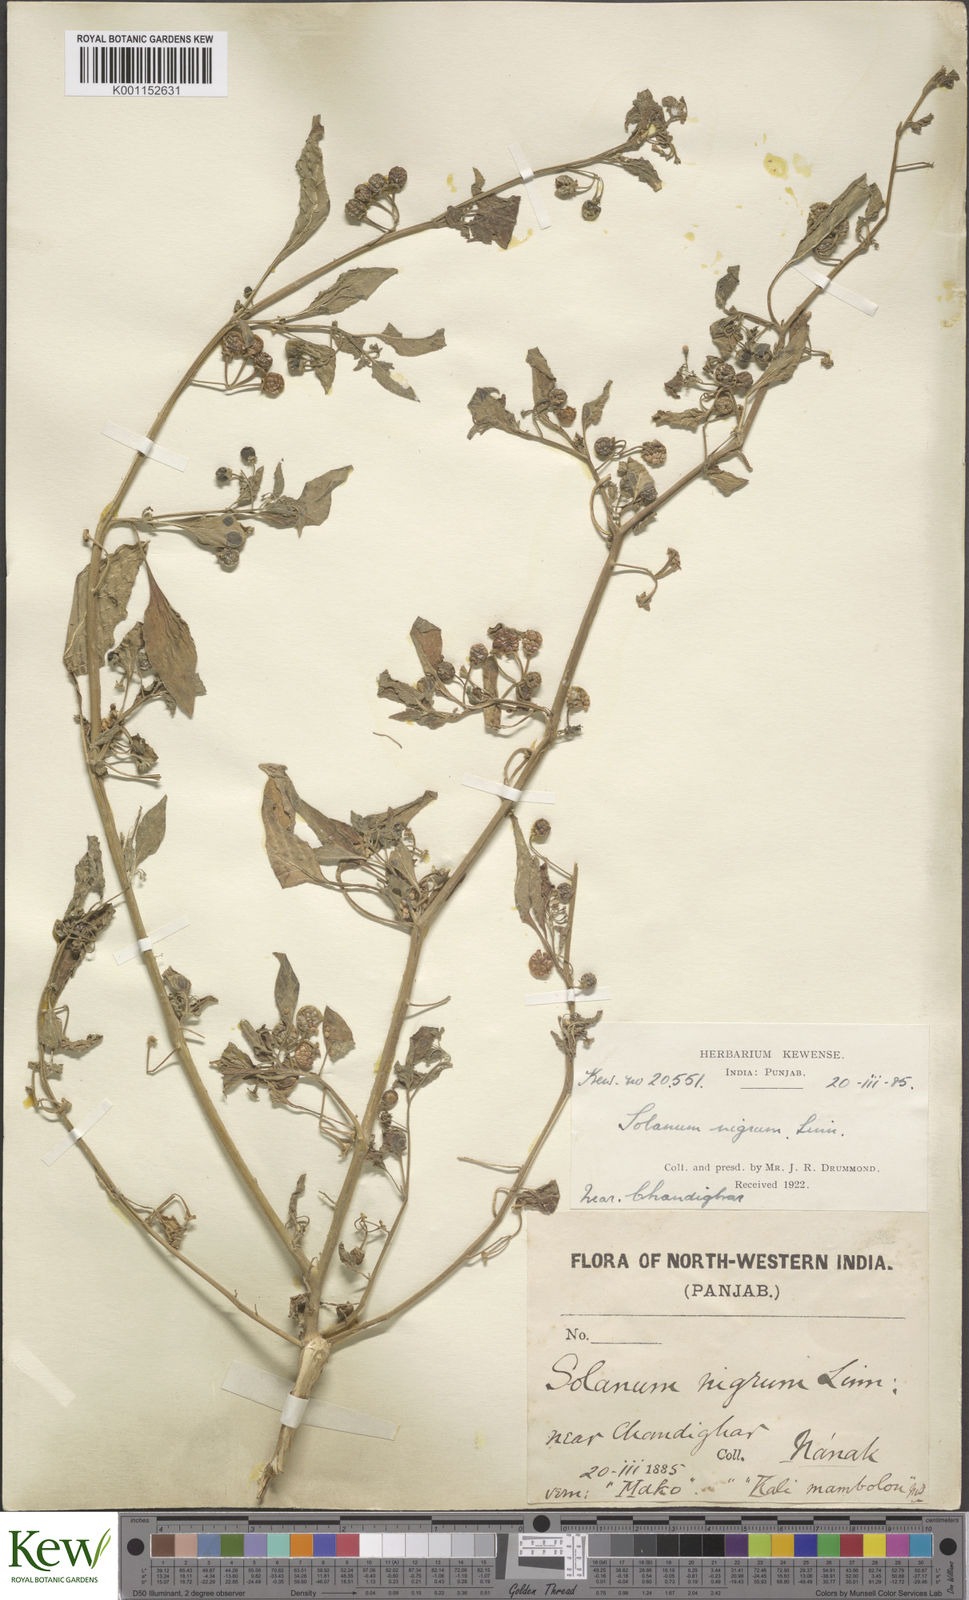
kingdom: Plantae
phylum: Tracheophyta
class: Magnoliopsida
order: Solanales
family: Solanaceae
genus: Solanum
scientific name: Solanum nigrum
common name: Black nightshade
